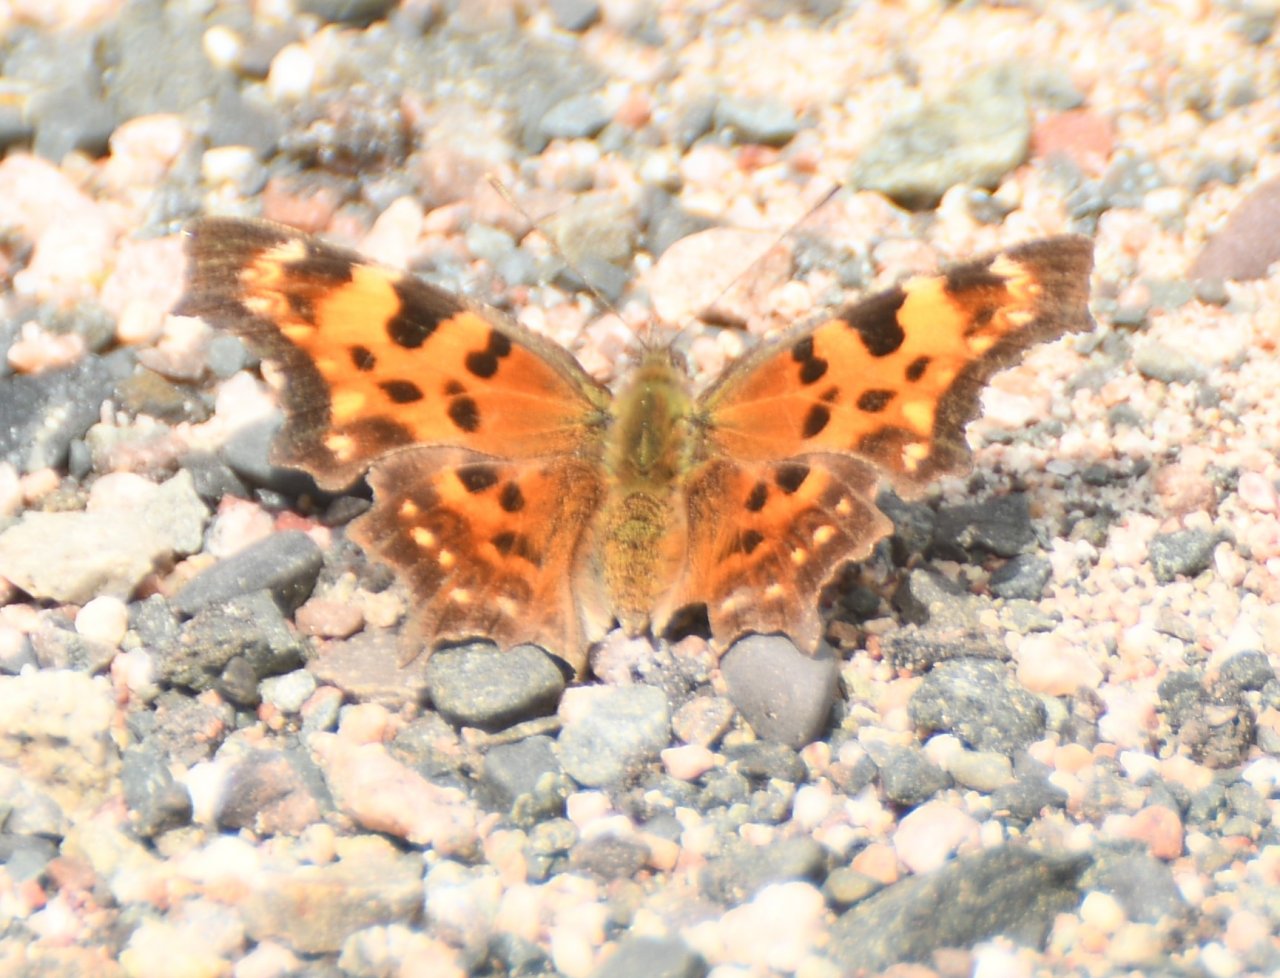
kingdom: Animalia
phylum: Arthropoda
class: Insecta
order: Lepidoptera
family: Nymphalidae
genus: Polygonia
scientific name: Polygonia faunus
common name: Green Comma
